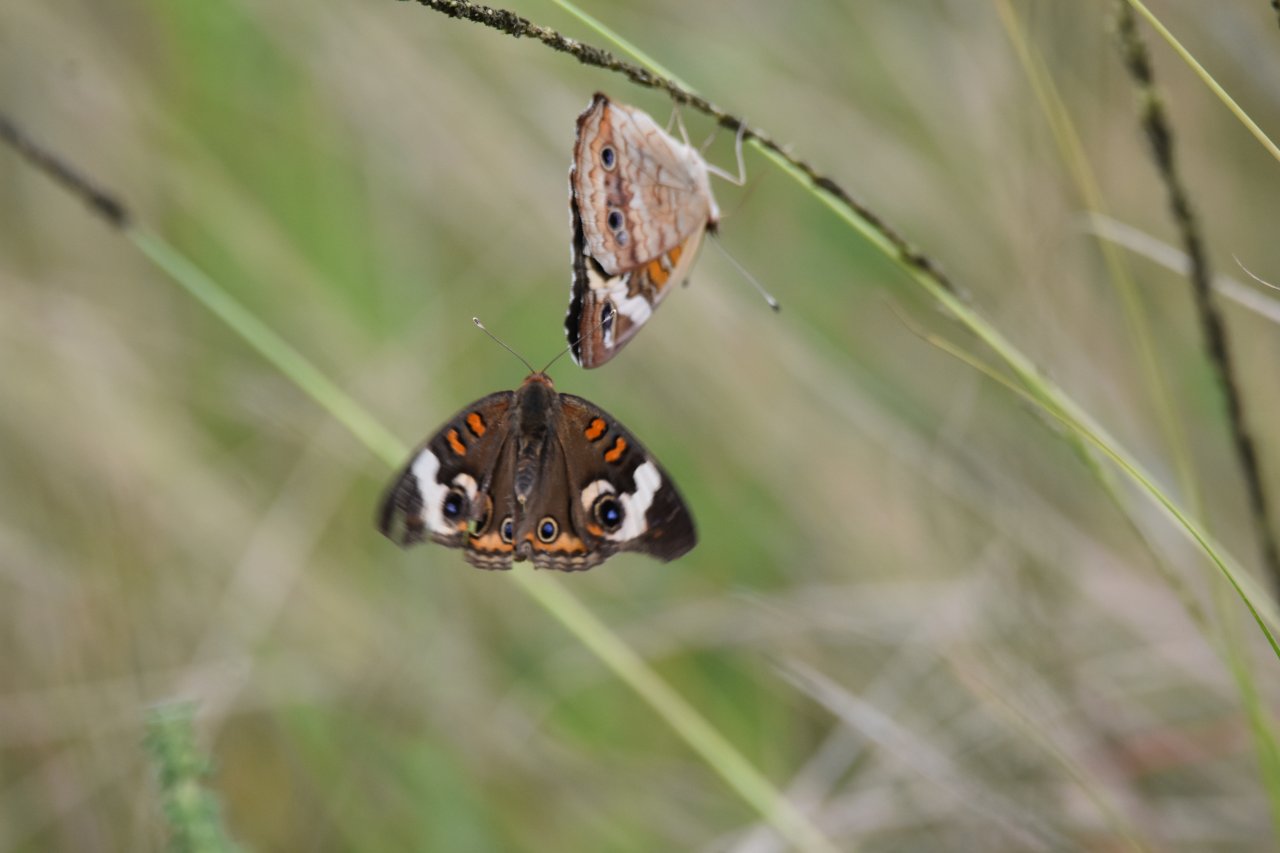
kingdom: Animalia
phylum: Arthropoda
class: Insecta
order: Lepidoptera
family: Nymphalidae
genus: Junonia
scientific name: Junonia coenia
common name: Common Buckeye
